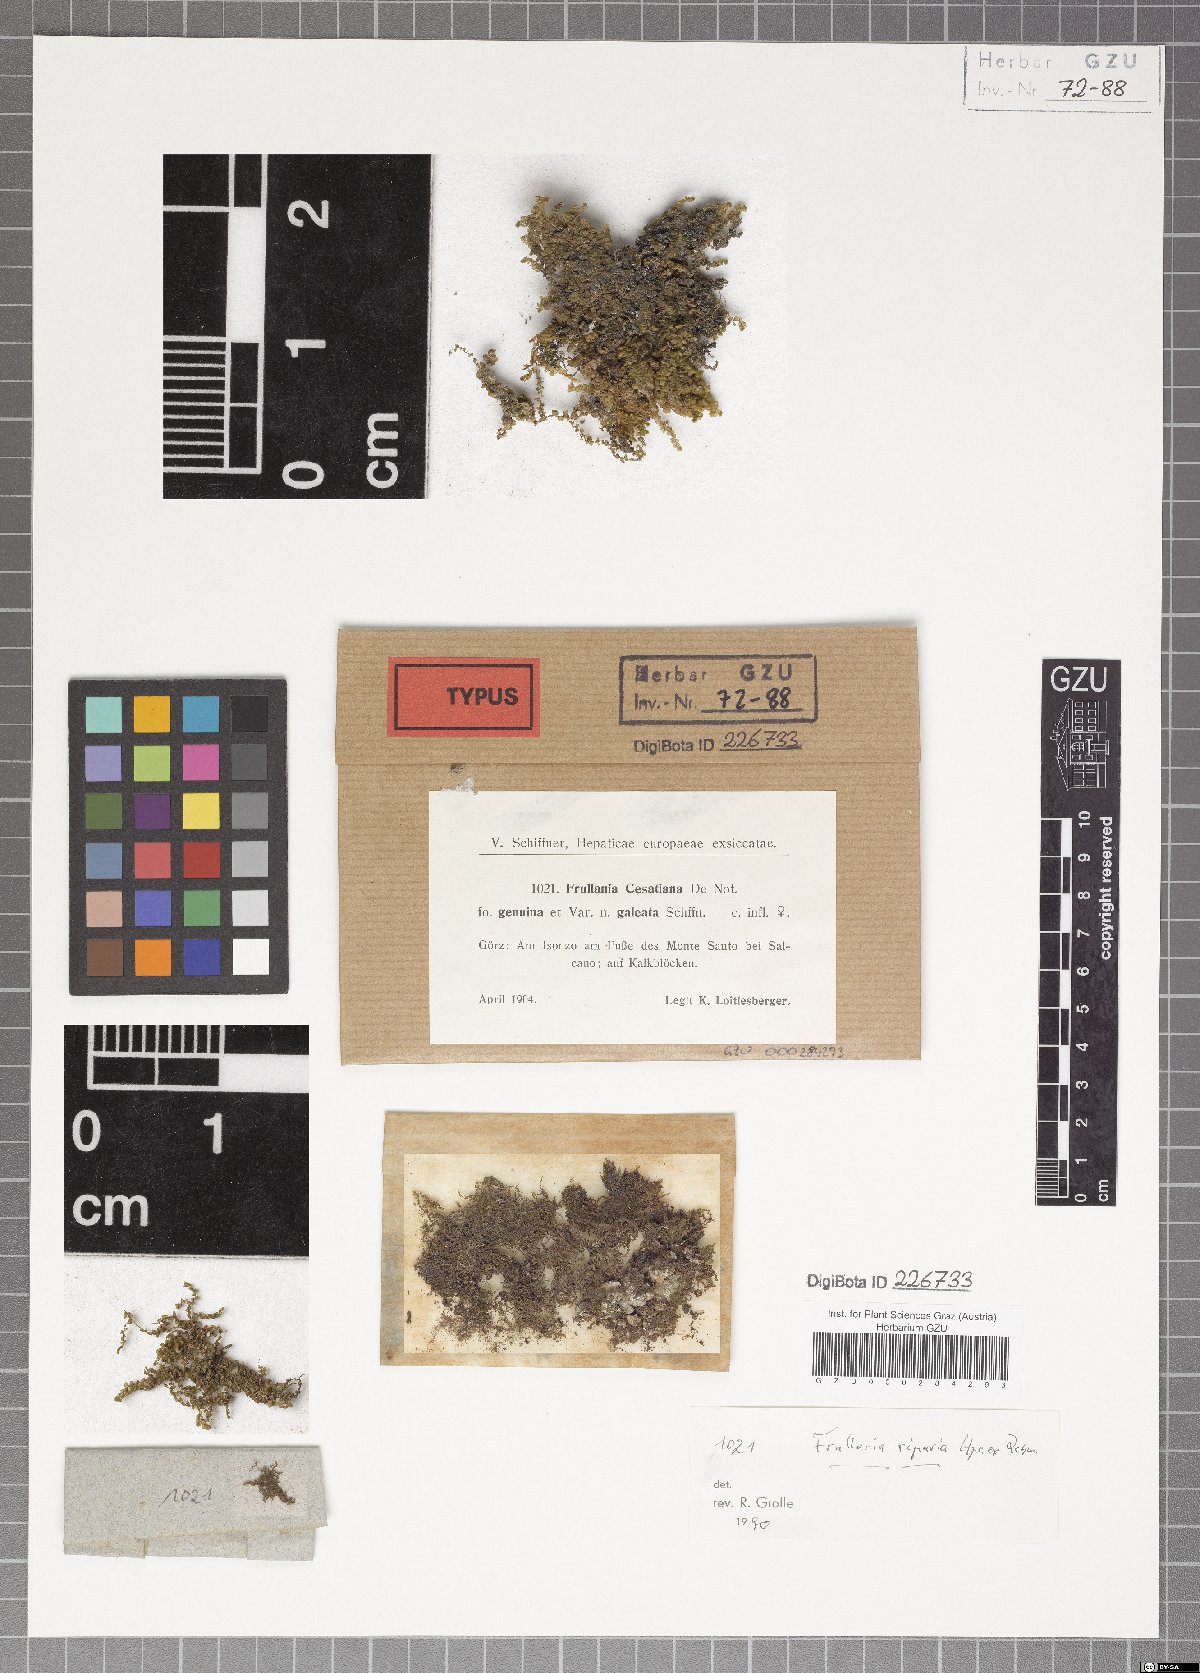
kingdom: Plantae
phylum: Marchantiophyta
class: Jungermanniopsida
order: Porellales
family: Frullaniaceae
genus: Frullania
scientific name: Frullania riparia
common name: River scalewort
